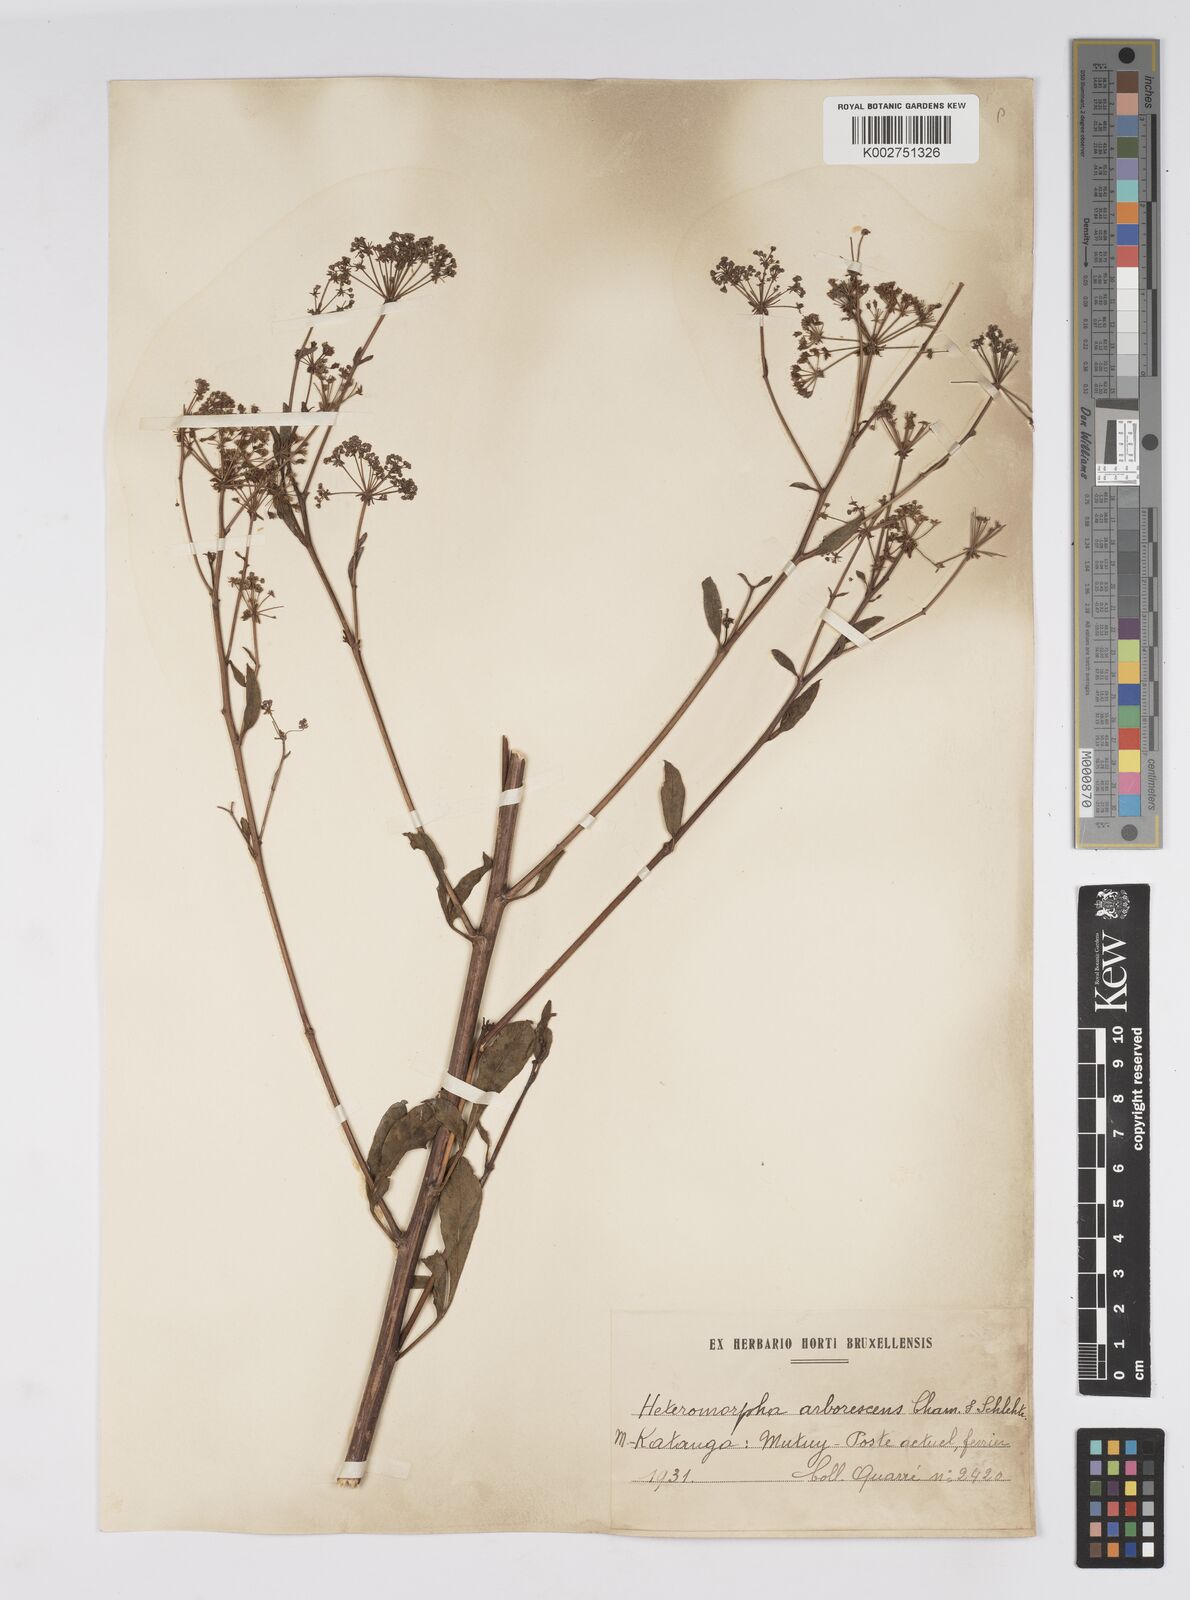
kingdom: Plantae
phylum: Tracheophyta
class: Magnoliopsida
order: Apiales
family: Apiaceae
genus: Heteromorpha
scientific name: Heteromorpha arborescens
